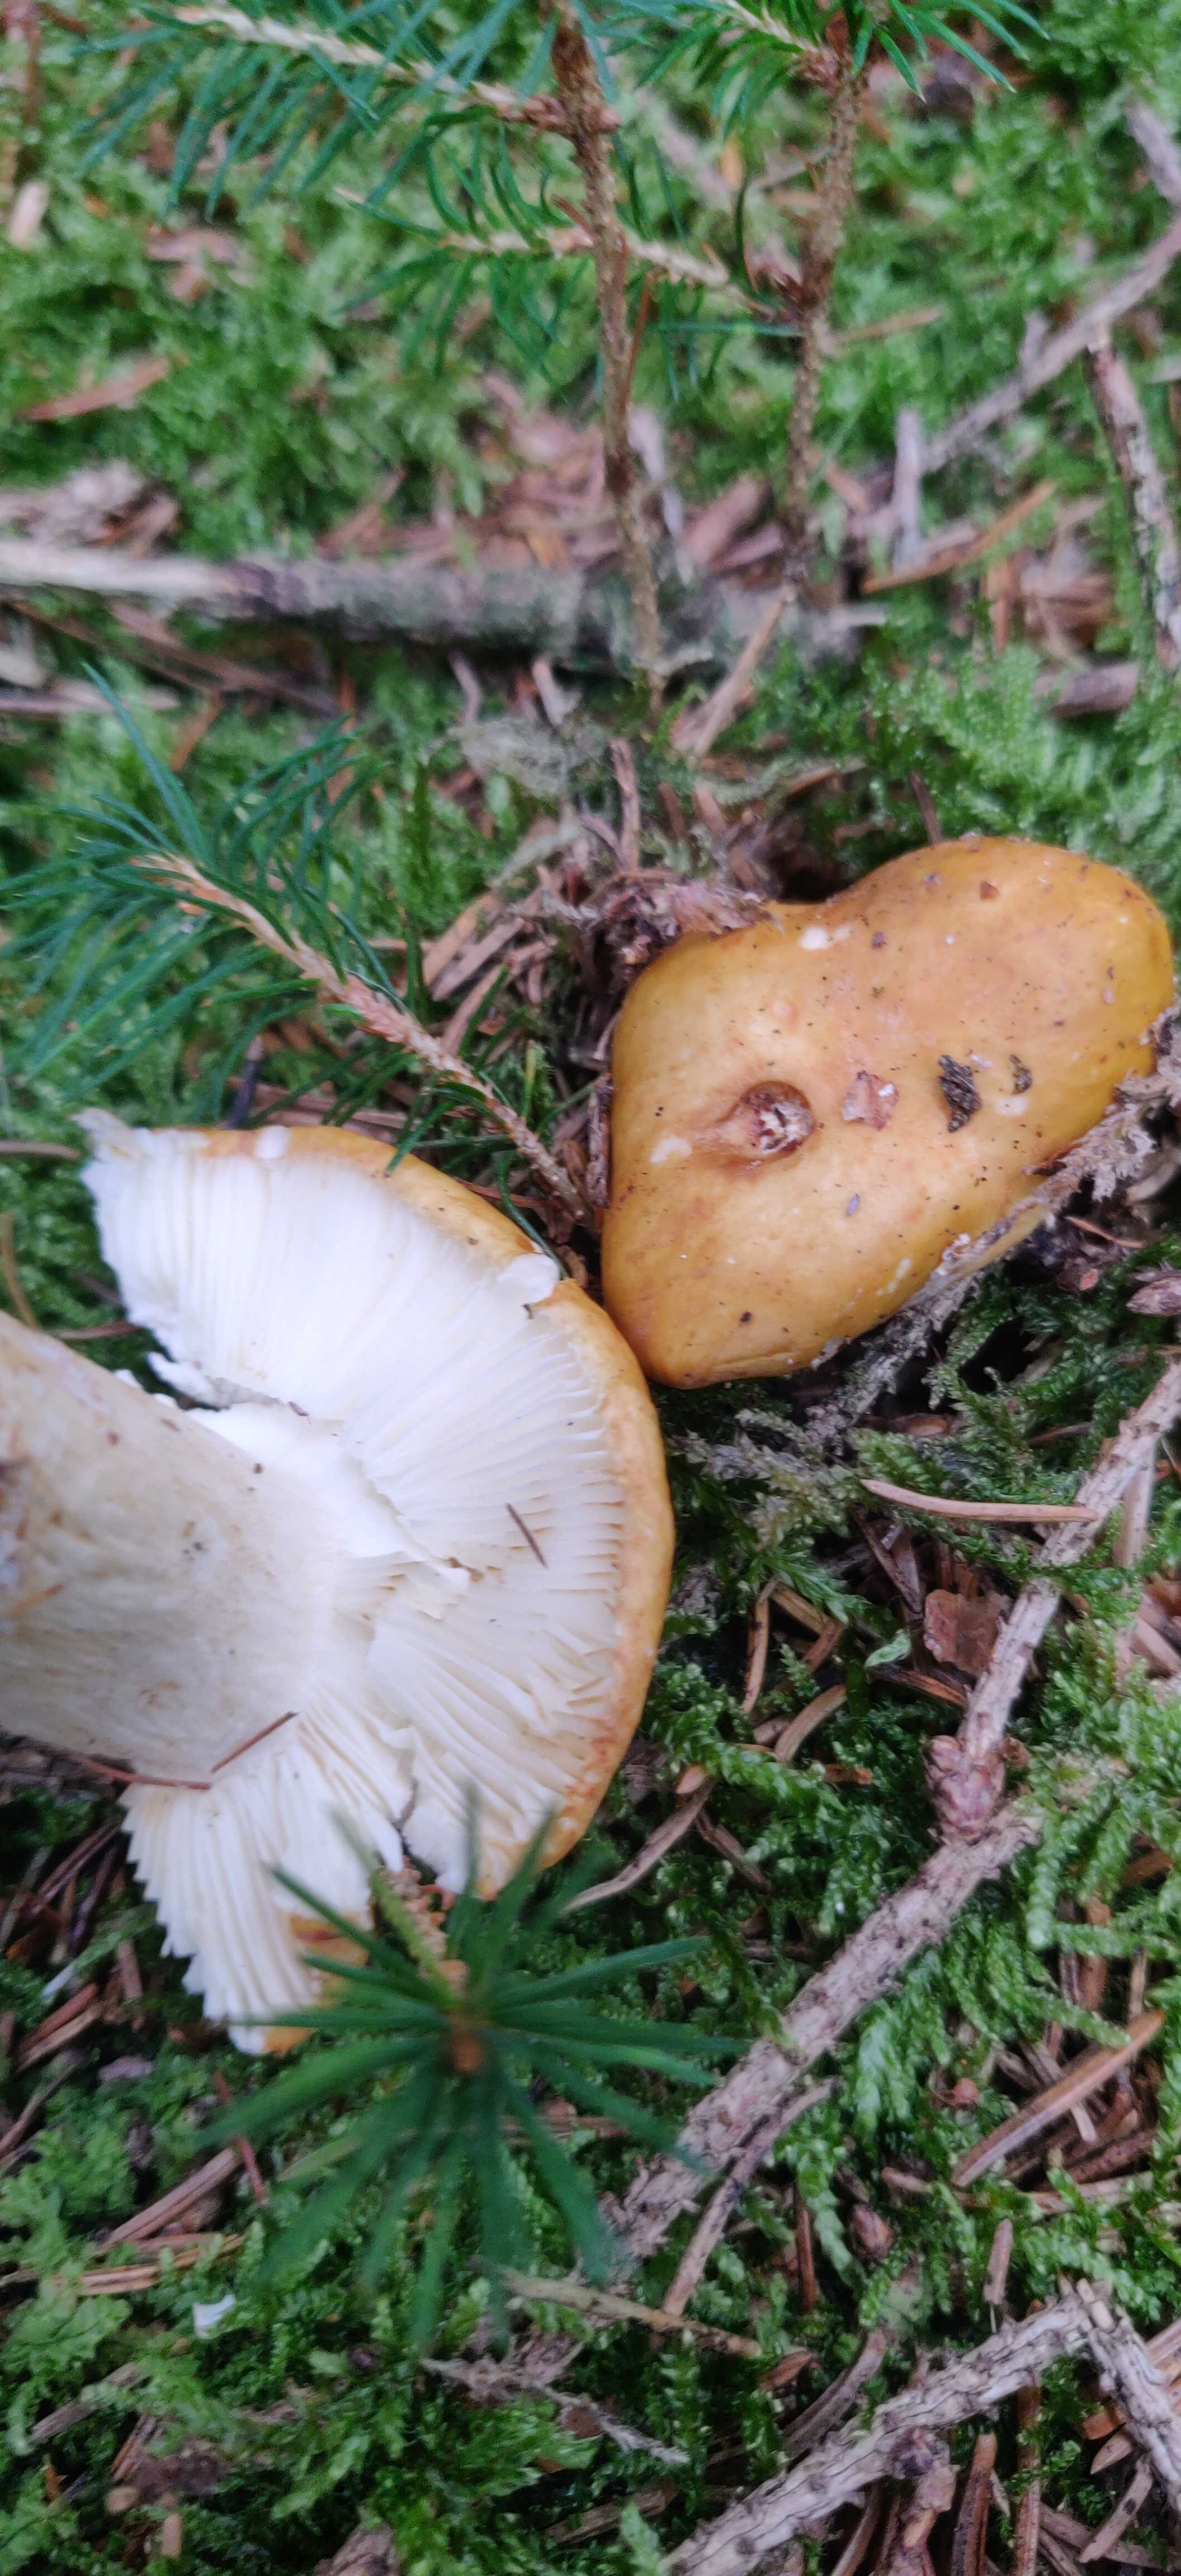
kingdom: Fungi
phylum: Basidiomycota
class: Agaricomycetes
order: Russulales
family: Russulaceae
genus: Russula
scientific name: Russula ochroleuca
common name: okkergul skørhat
